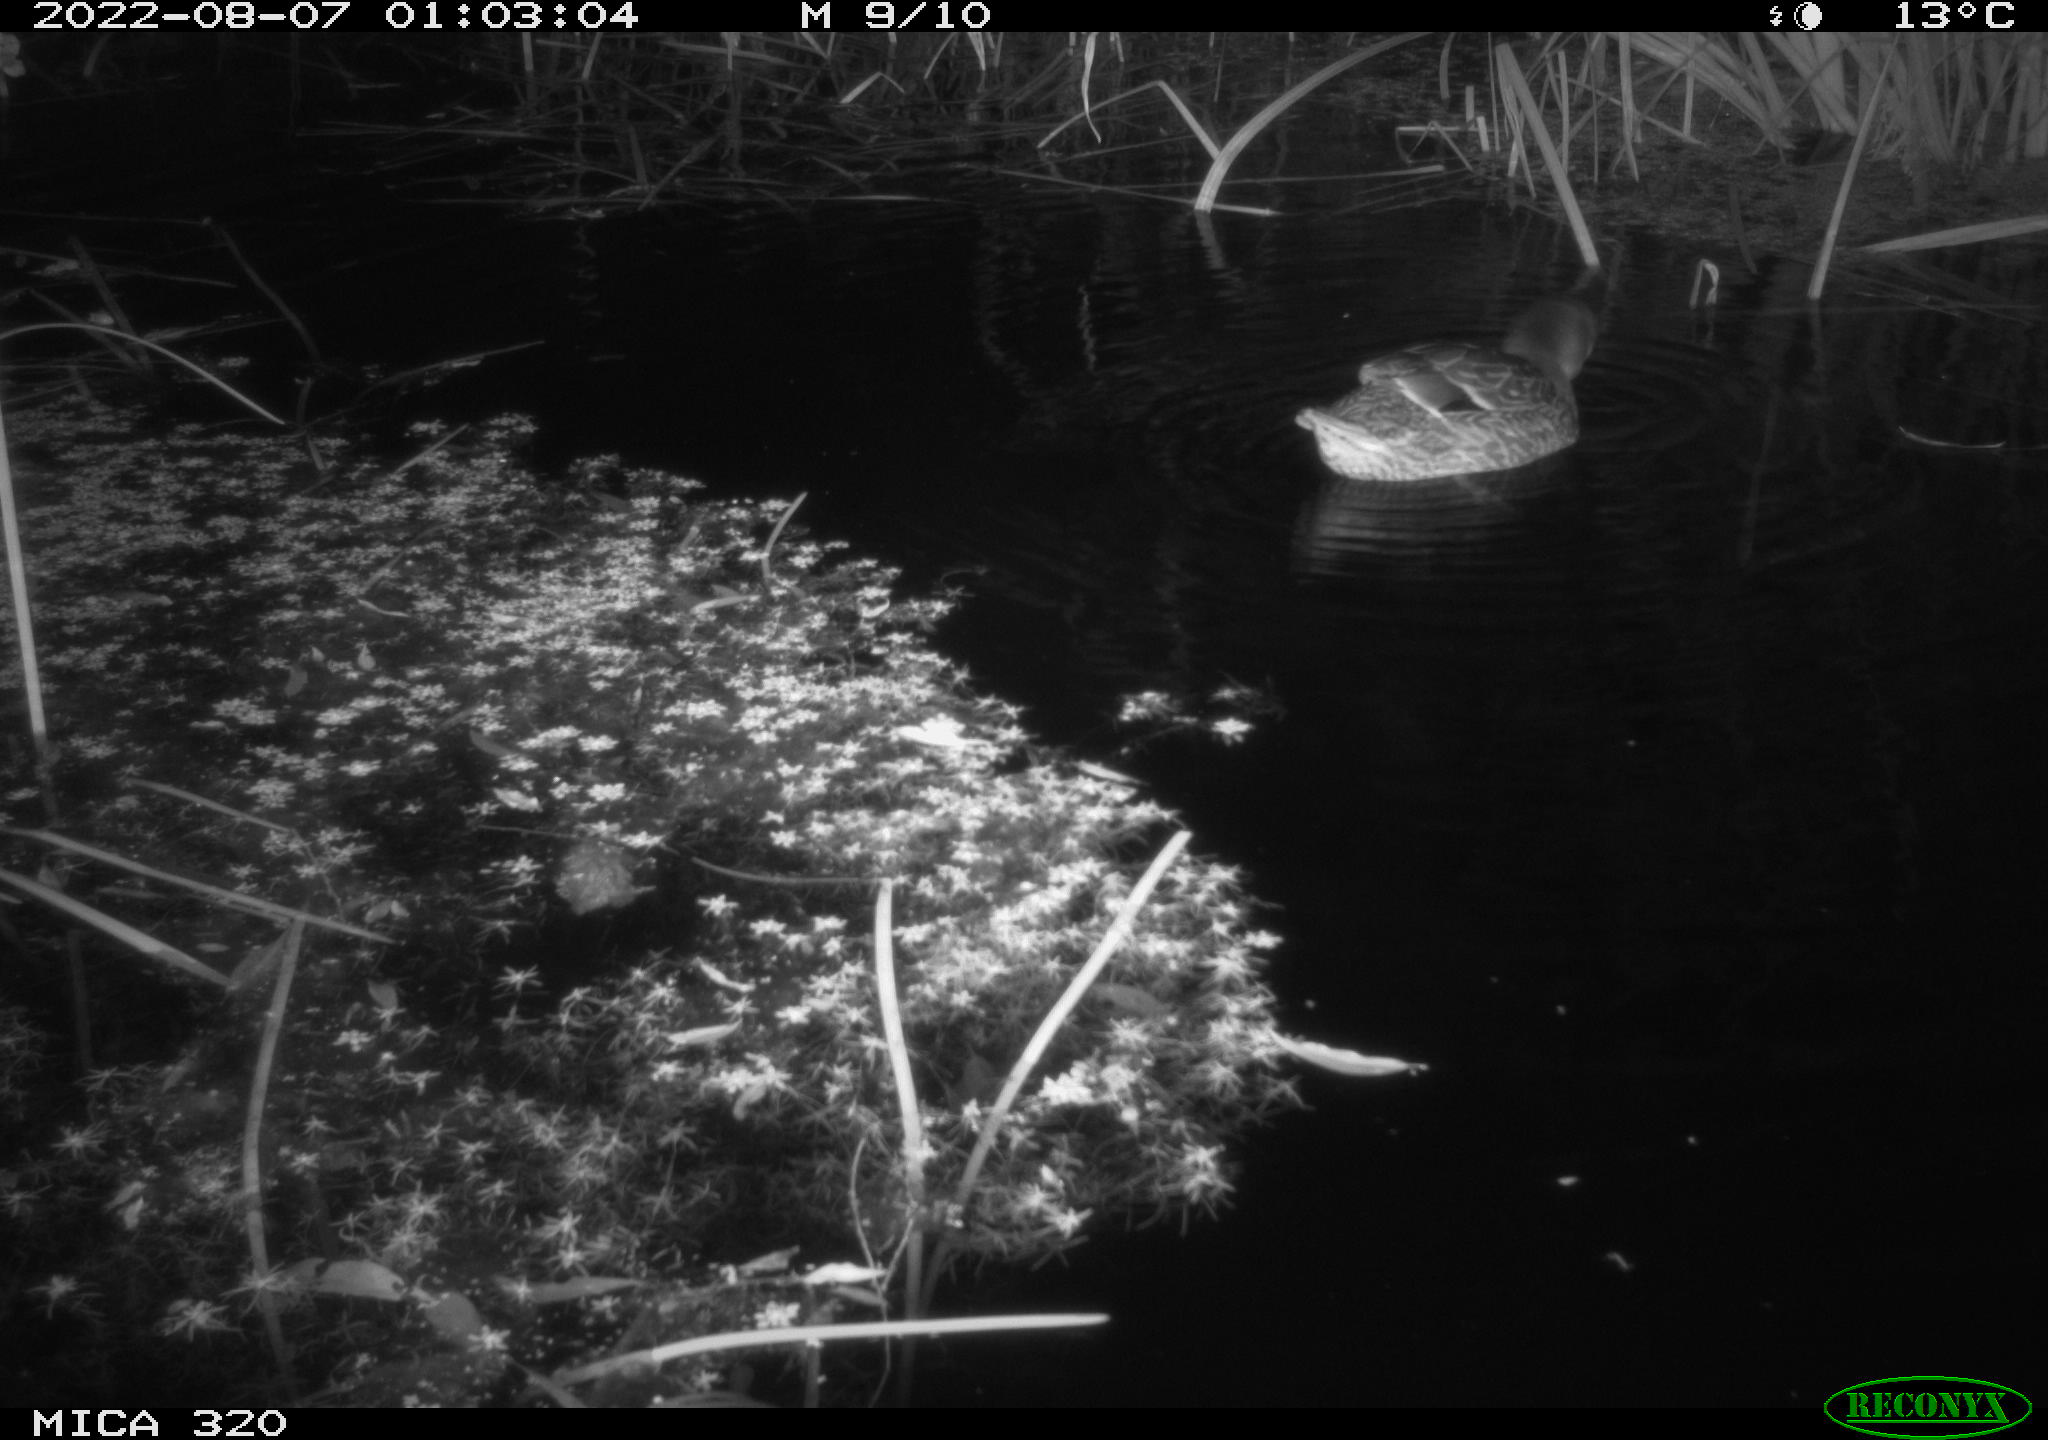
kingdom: Animalia
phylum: Chordata
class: Aves
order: Anseriformes
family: Anatidae
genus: Anas
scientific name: Anas platyrhynchos
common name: Mallard
